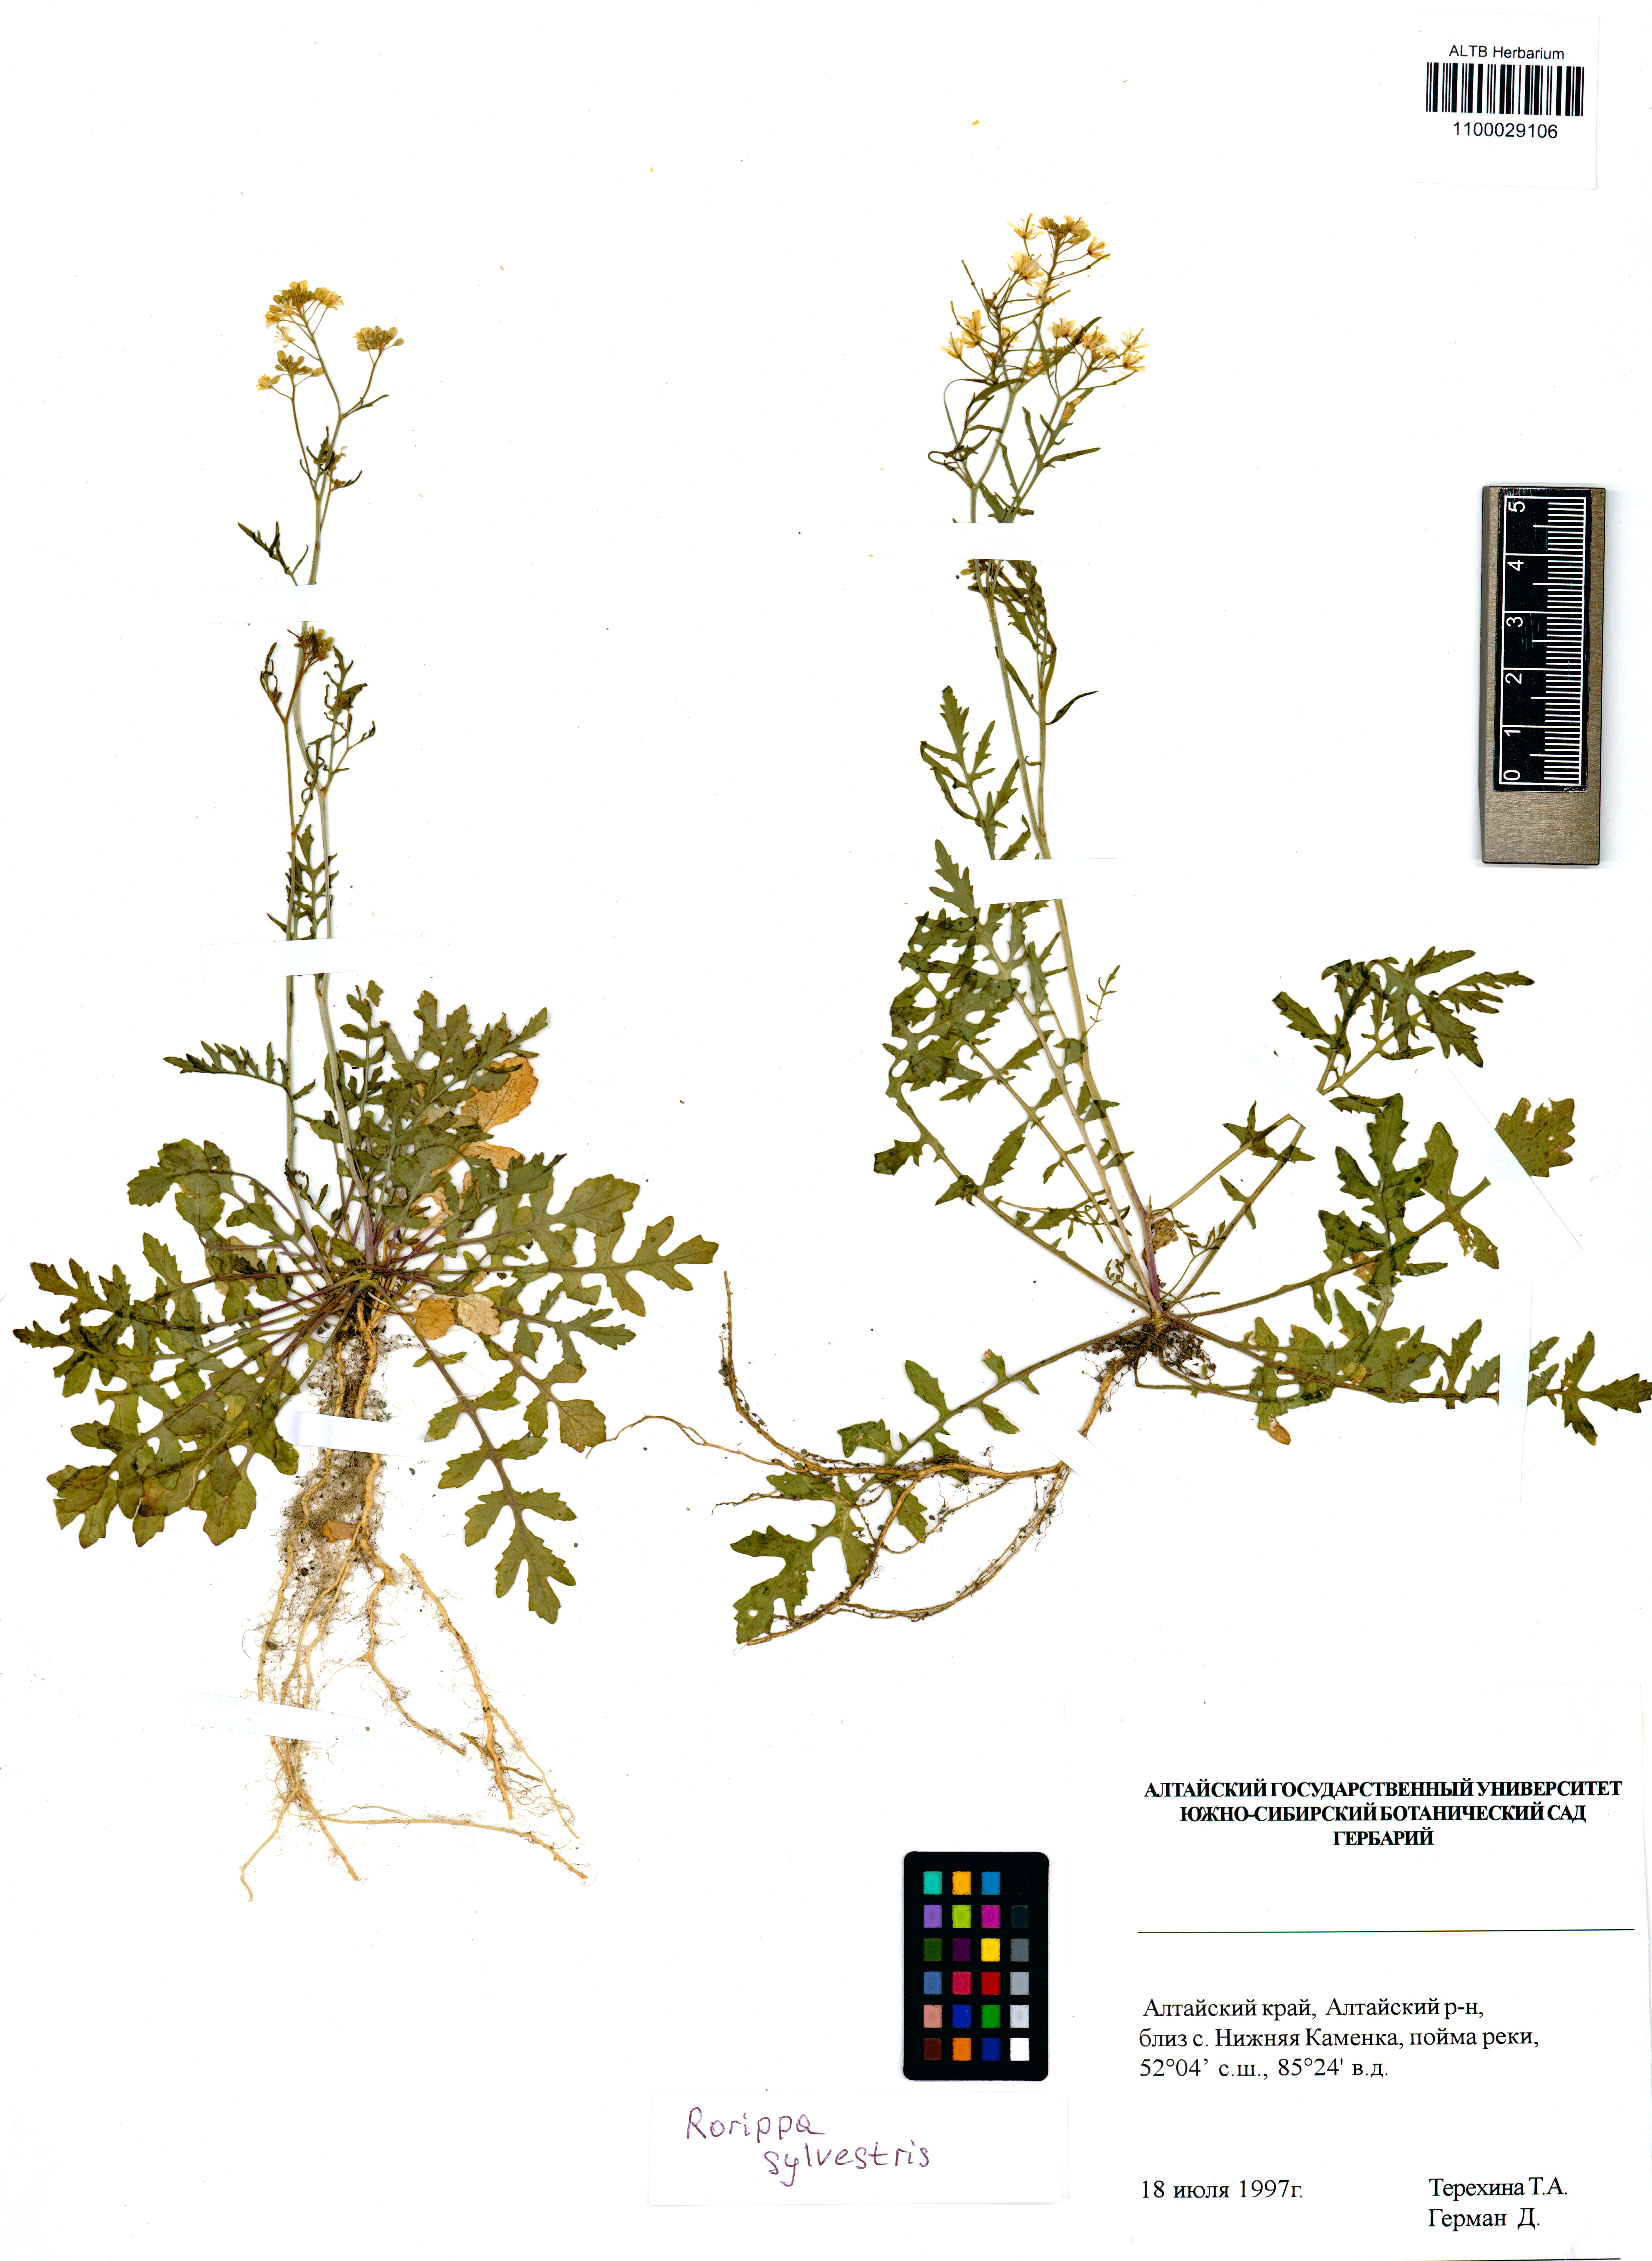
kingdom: Plantae
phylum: Tracheophyta
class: Magnoliopsida
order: Brassicales
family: Brassicaceae
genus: Rorippa
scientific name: Rorippa sylvestris
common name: Creeping yellowcress
